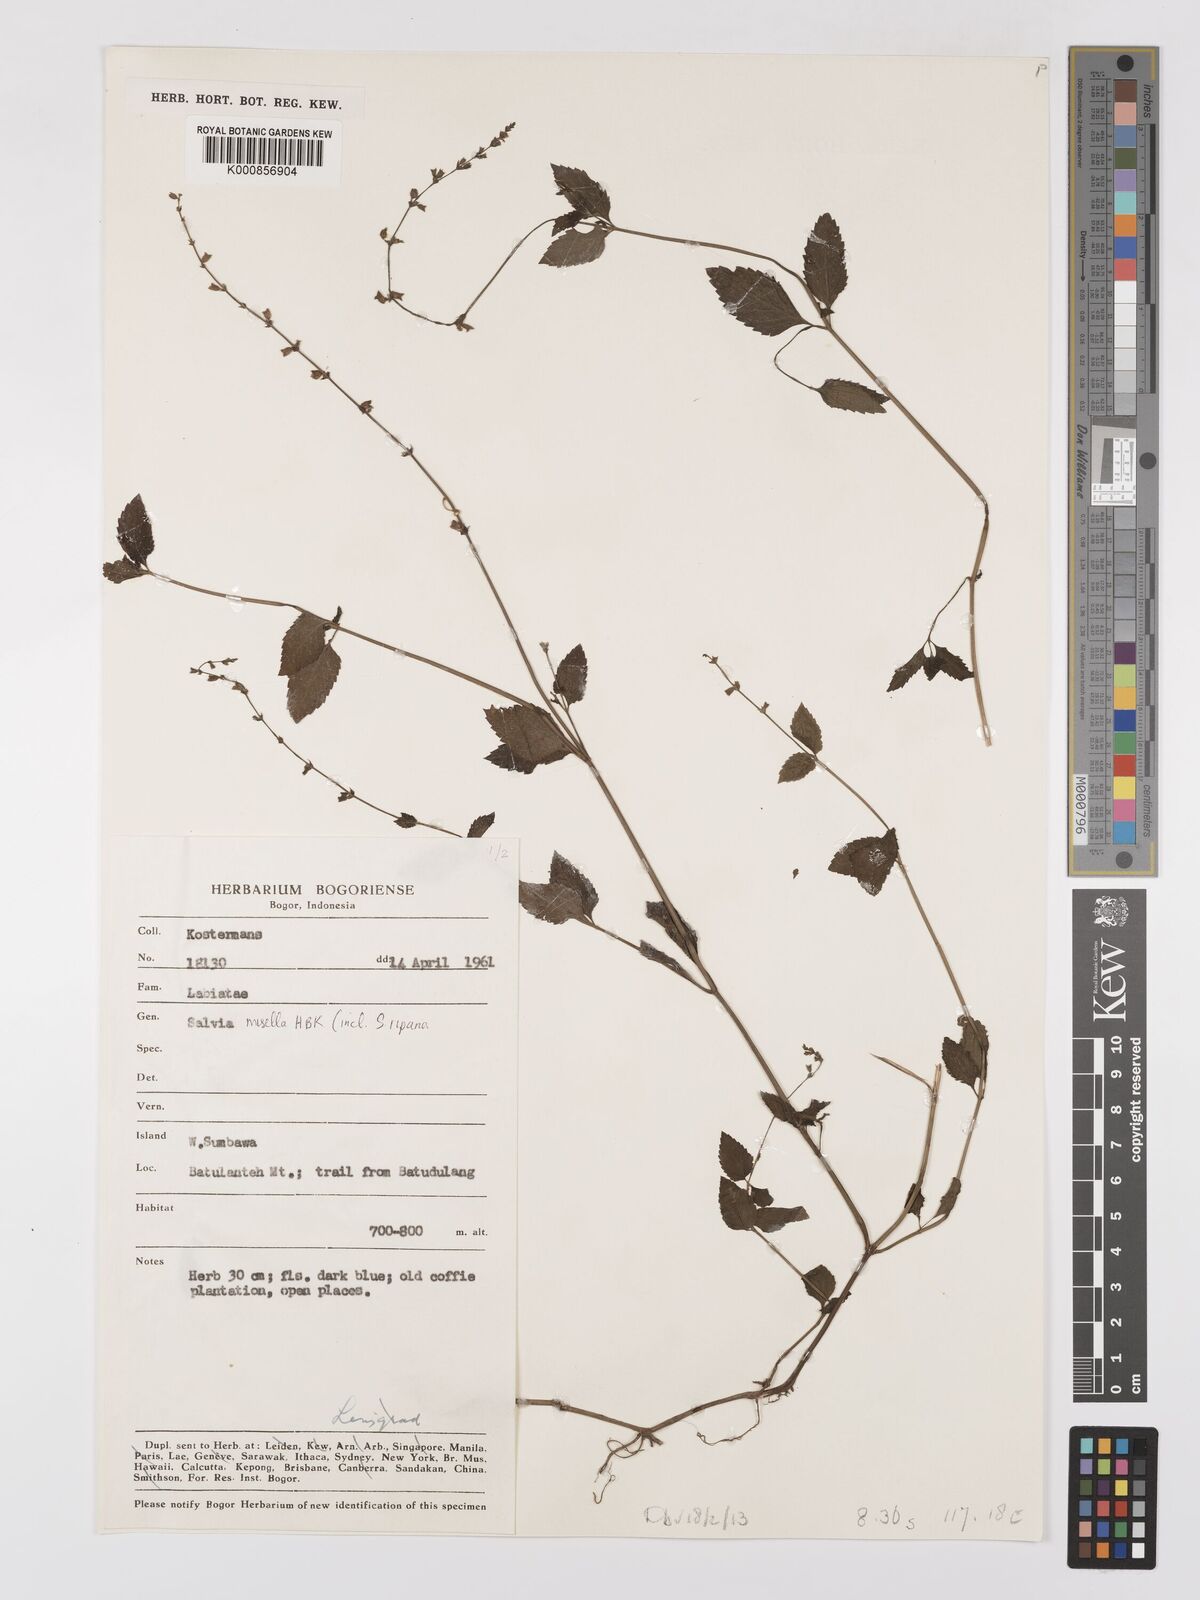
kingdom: Plantae
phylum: Tracheophyta
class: Magnoliopsida
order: Lamiales
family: Lamiaceae
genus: Salvia
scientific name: Salvia misella
